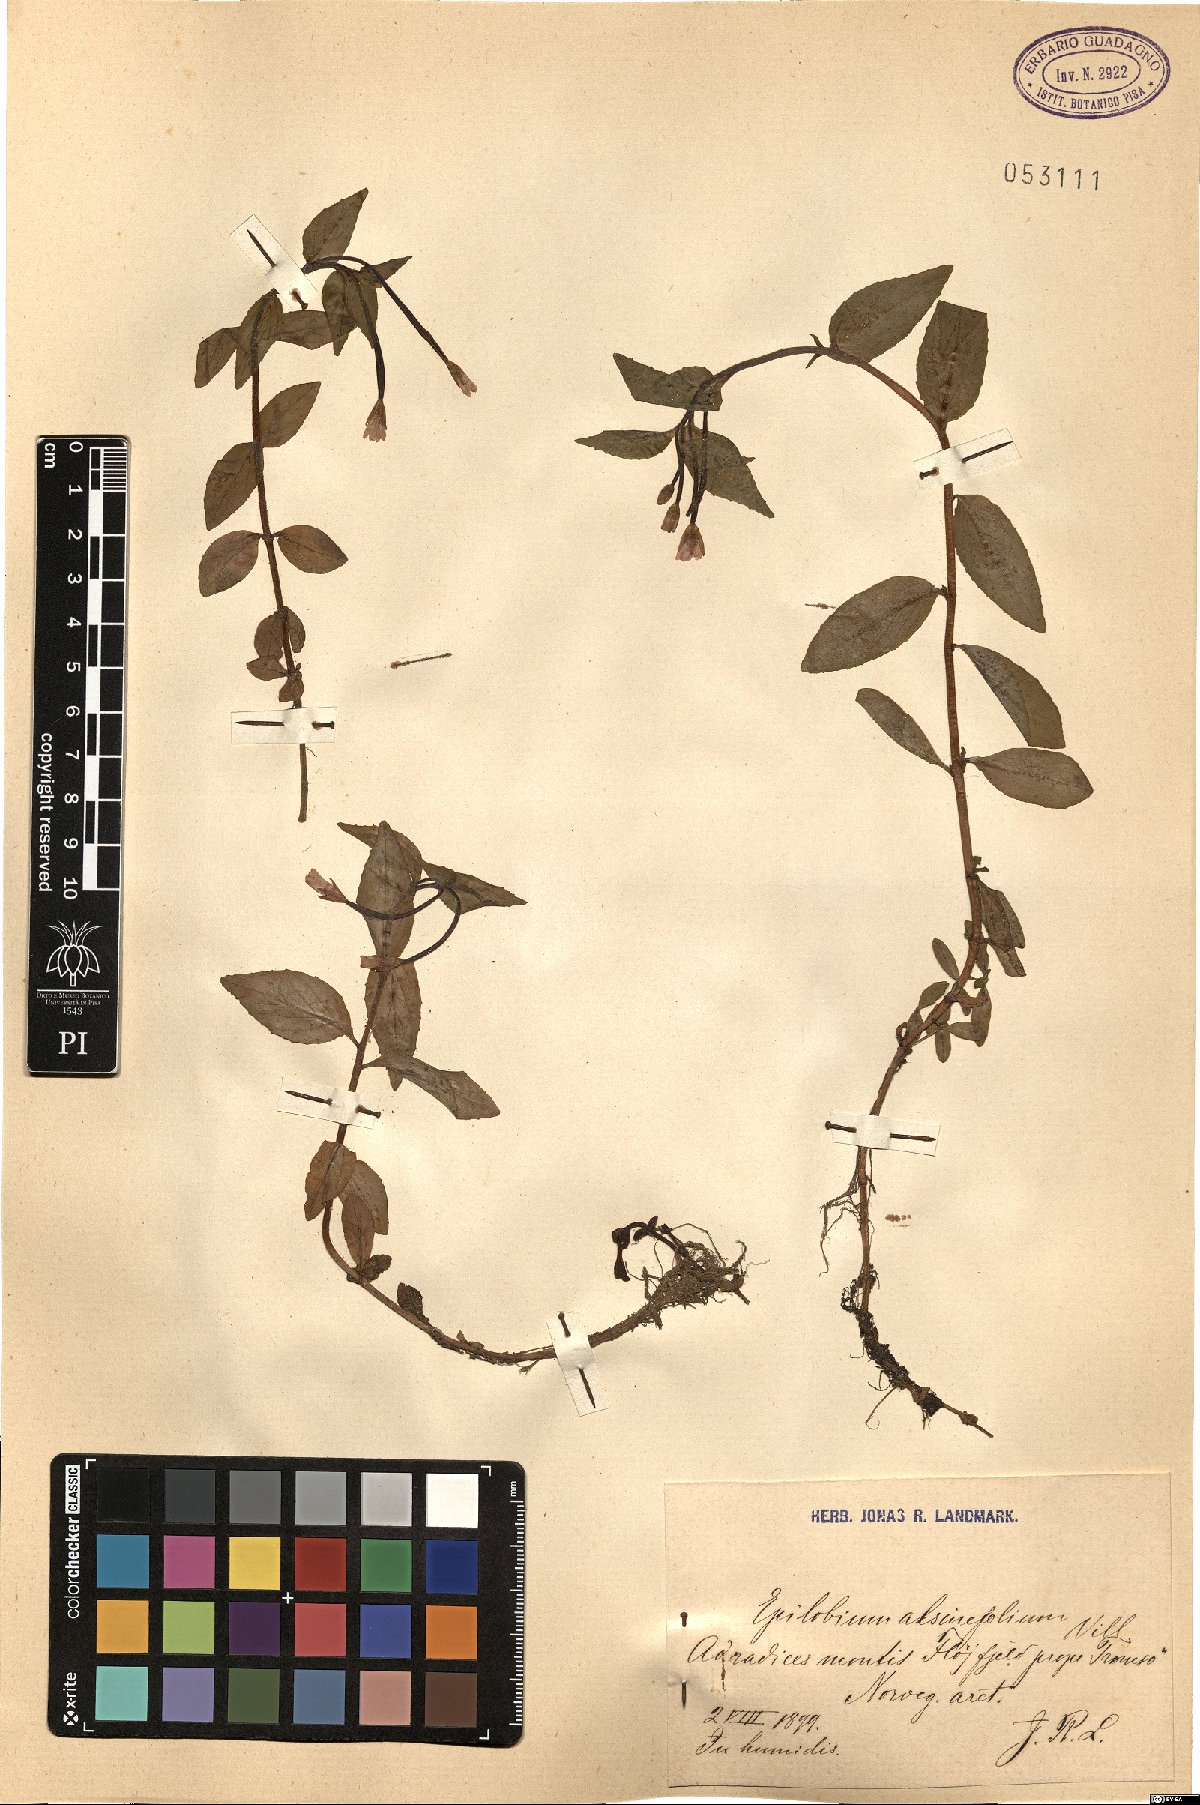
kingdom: Plantae
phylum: Tracheophyta
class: Magnoliopsida
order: Myrtales
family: Onagraceae
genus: Epilobium
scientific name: Epilobium alsinifolium
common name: Chickweed willowherb
